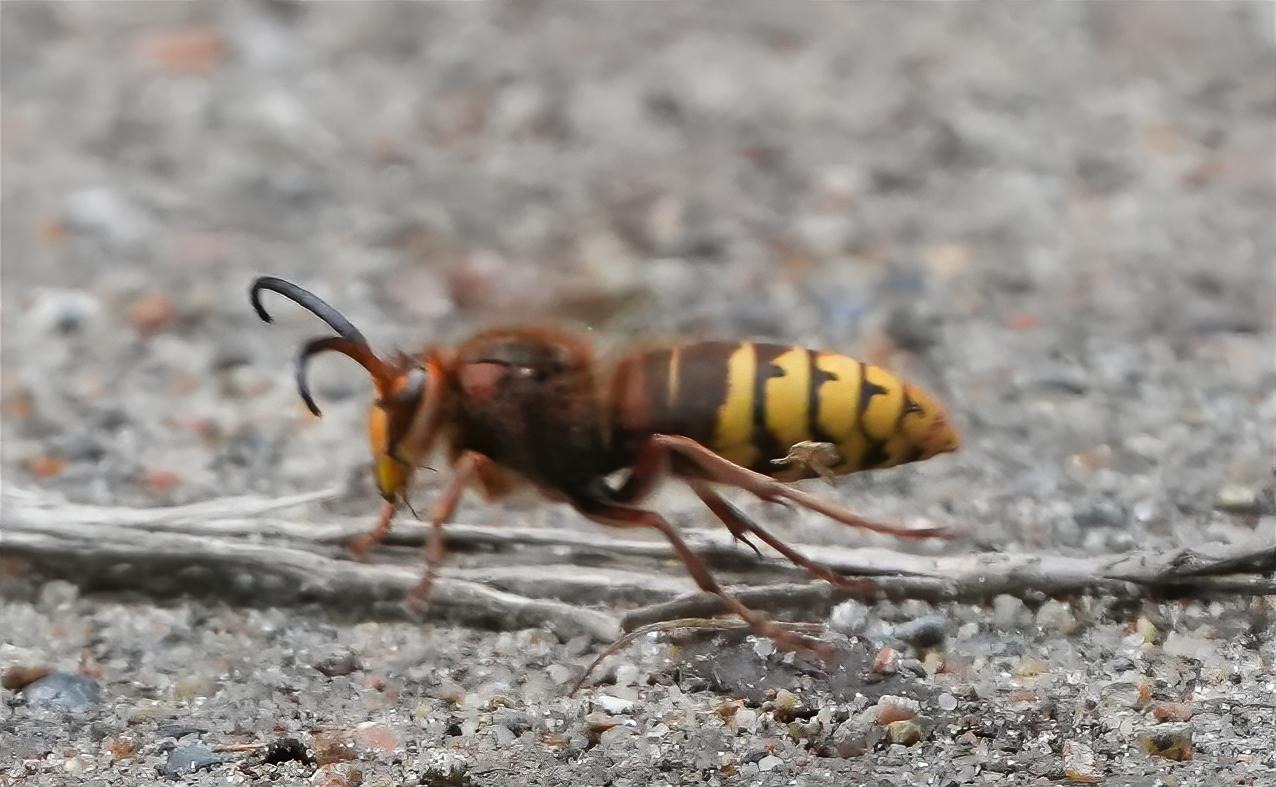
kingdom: Animalia
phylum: Arthropoda
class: Insecta
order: Hymenoptera
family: Vespidae
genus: Vespa
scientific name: Vespa crabro
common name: Stor gedehams
